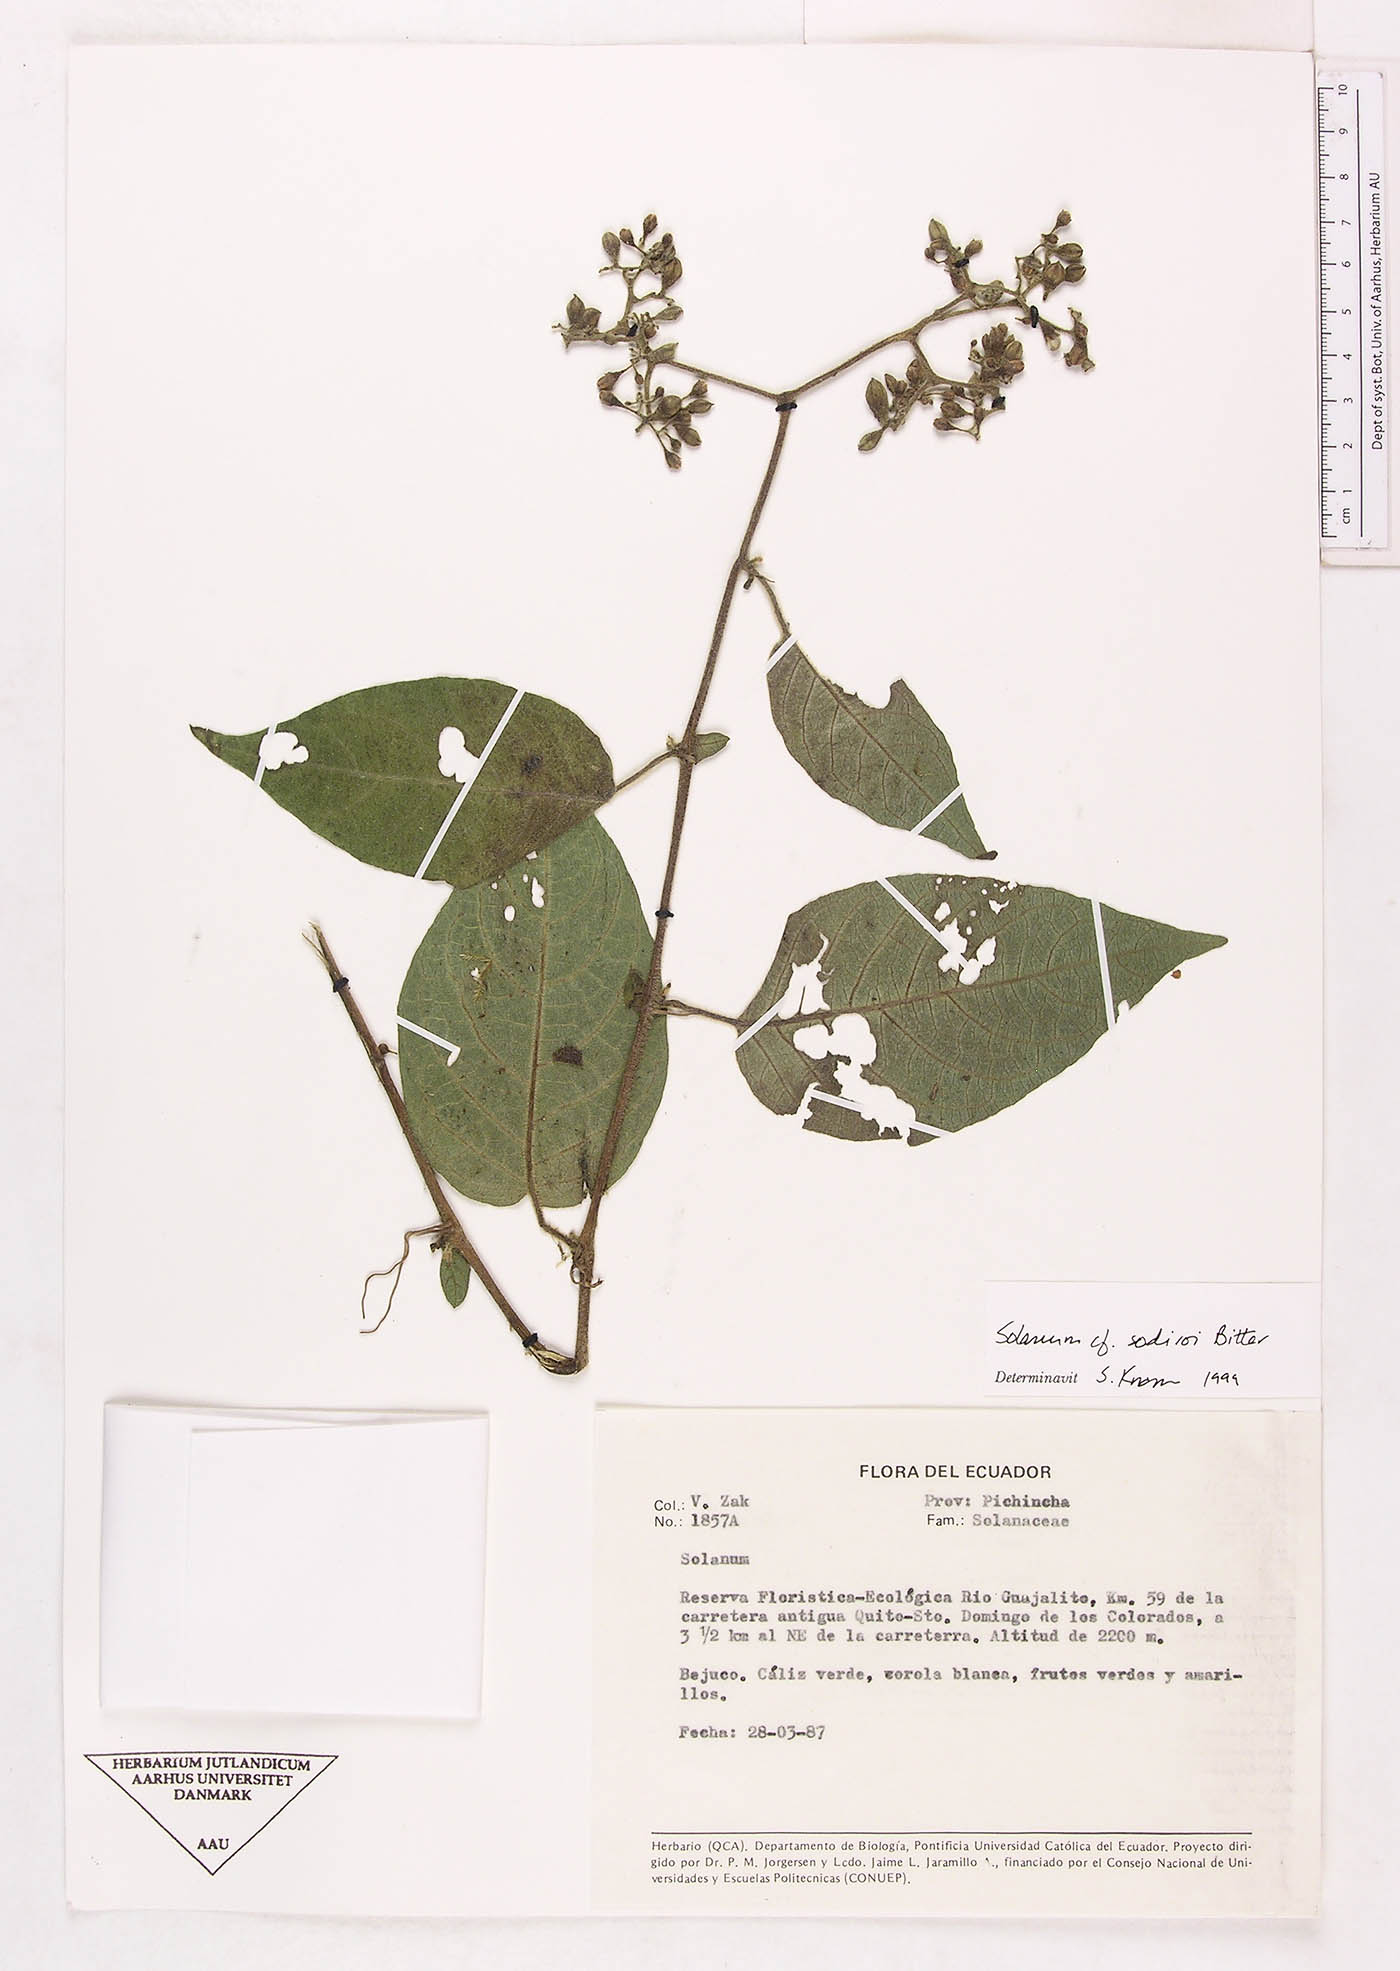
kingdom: Plantae
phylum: Tracheophyta
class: Magnoliopsida
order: Solanales
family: Solanaceae
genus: Solanum
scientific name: Solanum sodiroi
